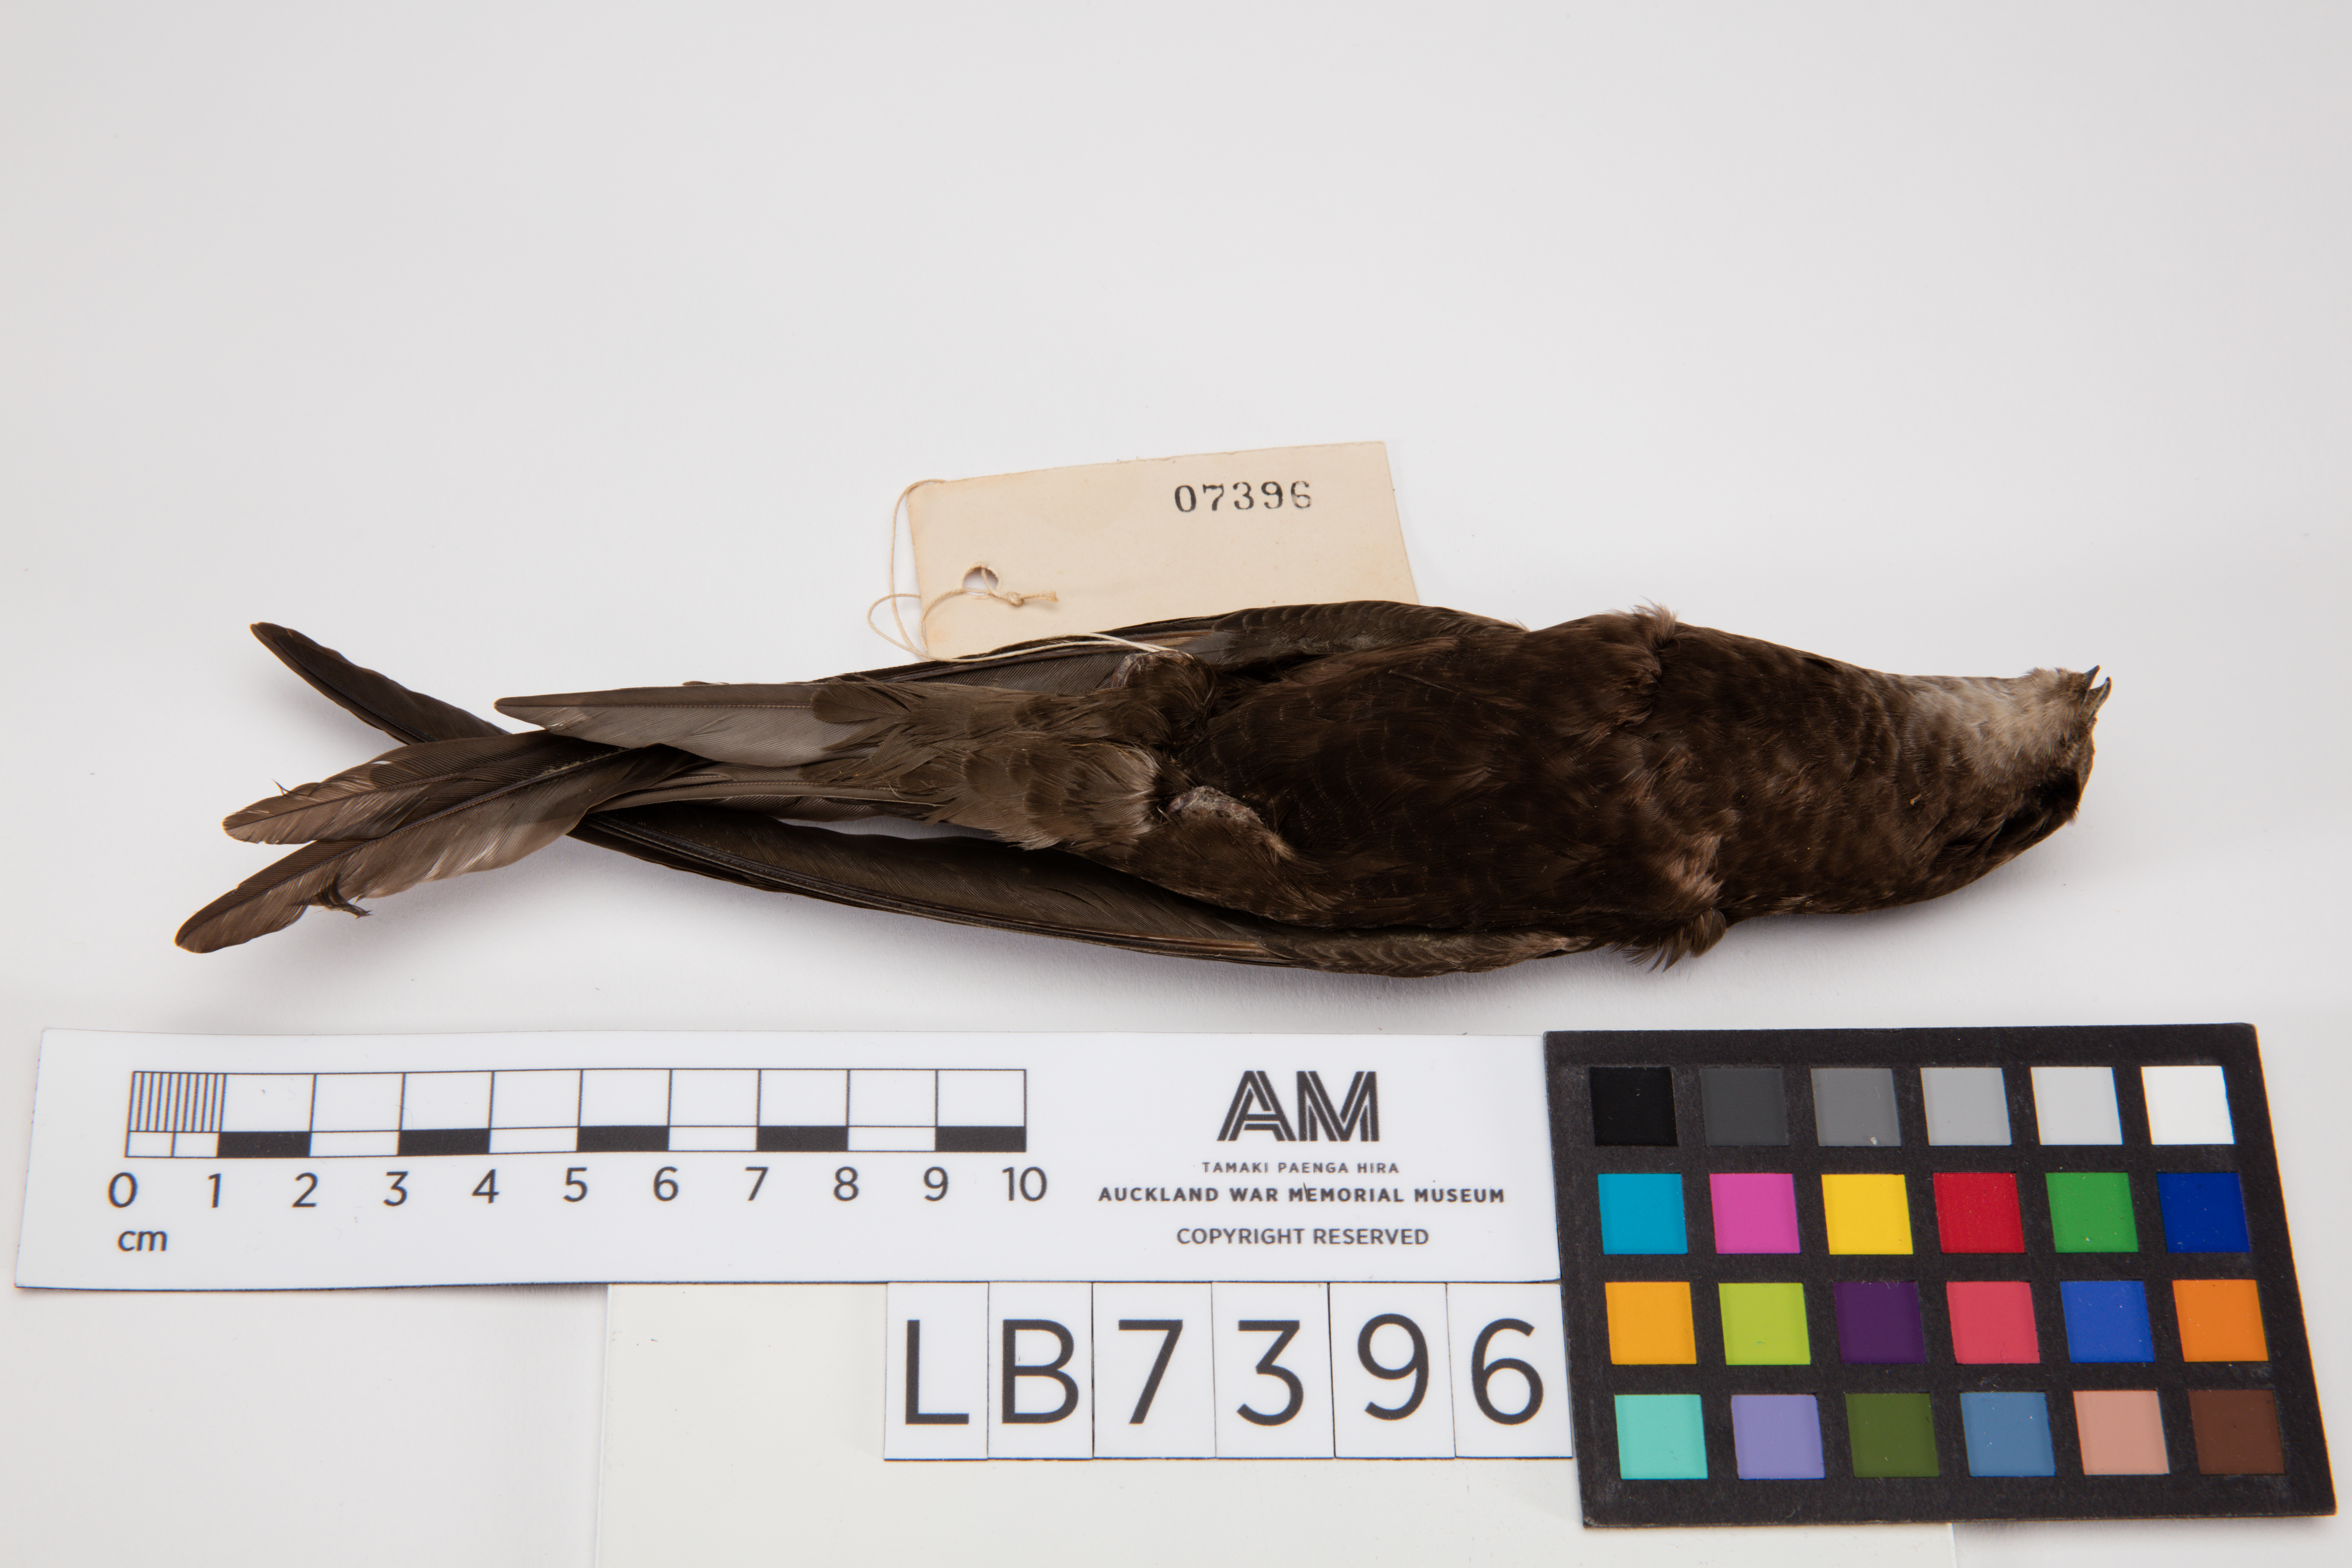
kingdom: Animalia
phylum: Chordata
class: Aves
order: Apodiformes
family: Apodidae
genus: Apus
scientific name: Apus apus
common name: Common swift
